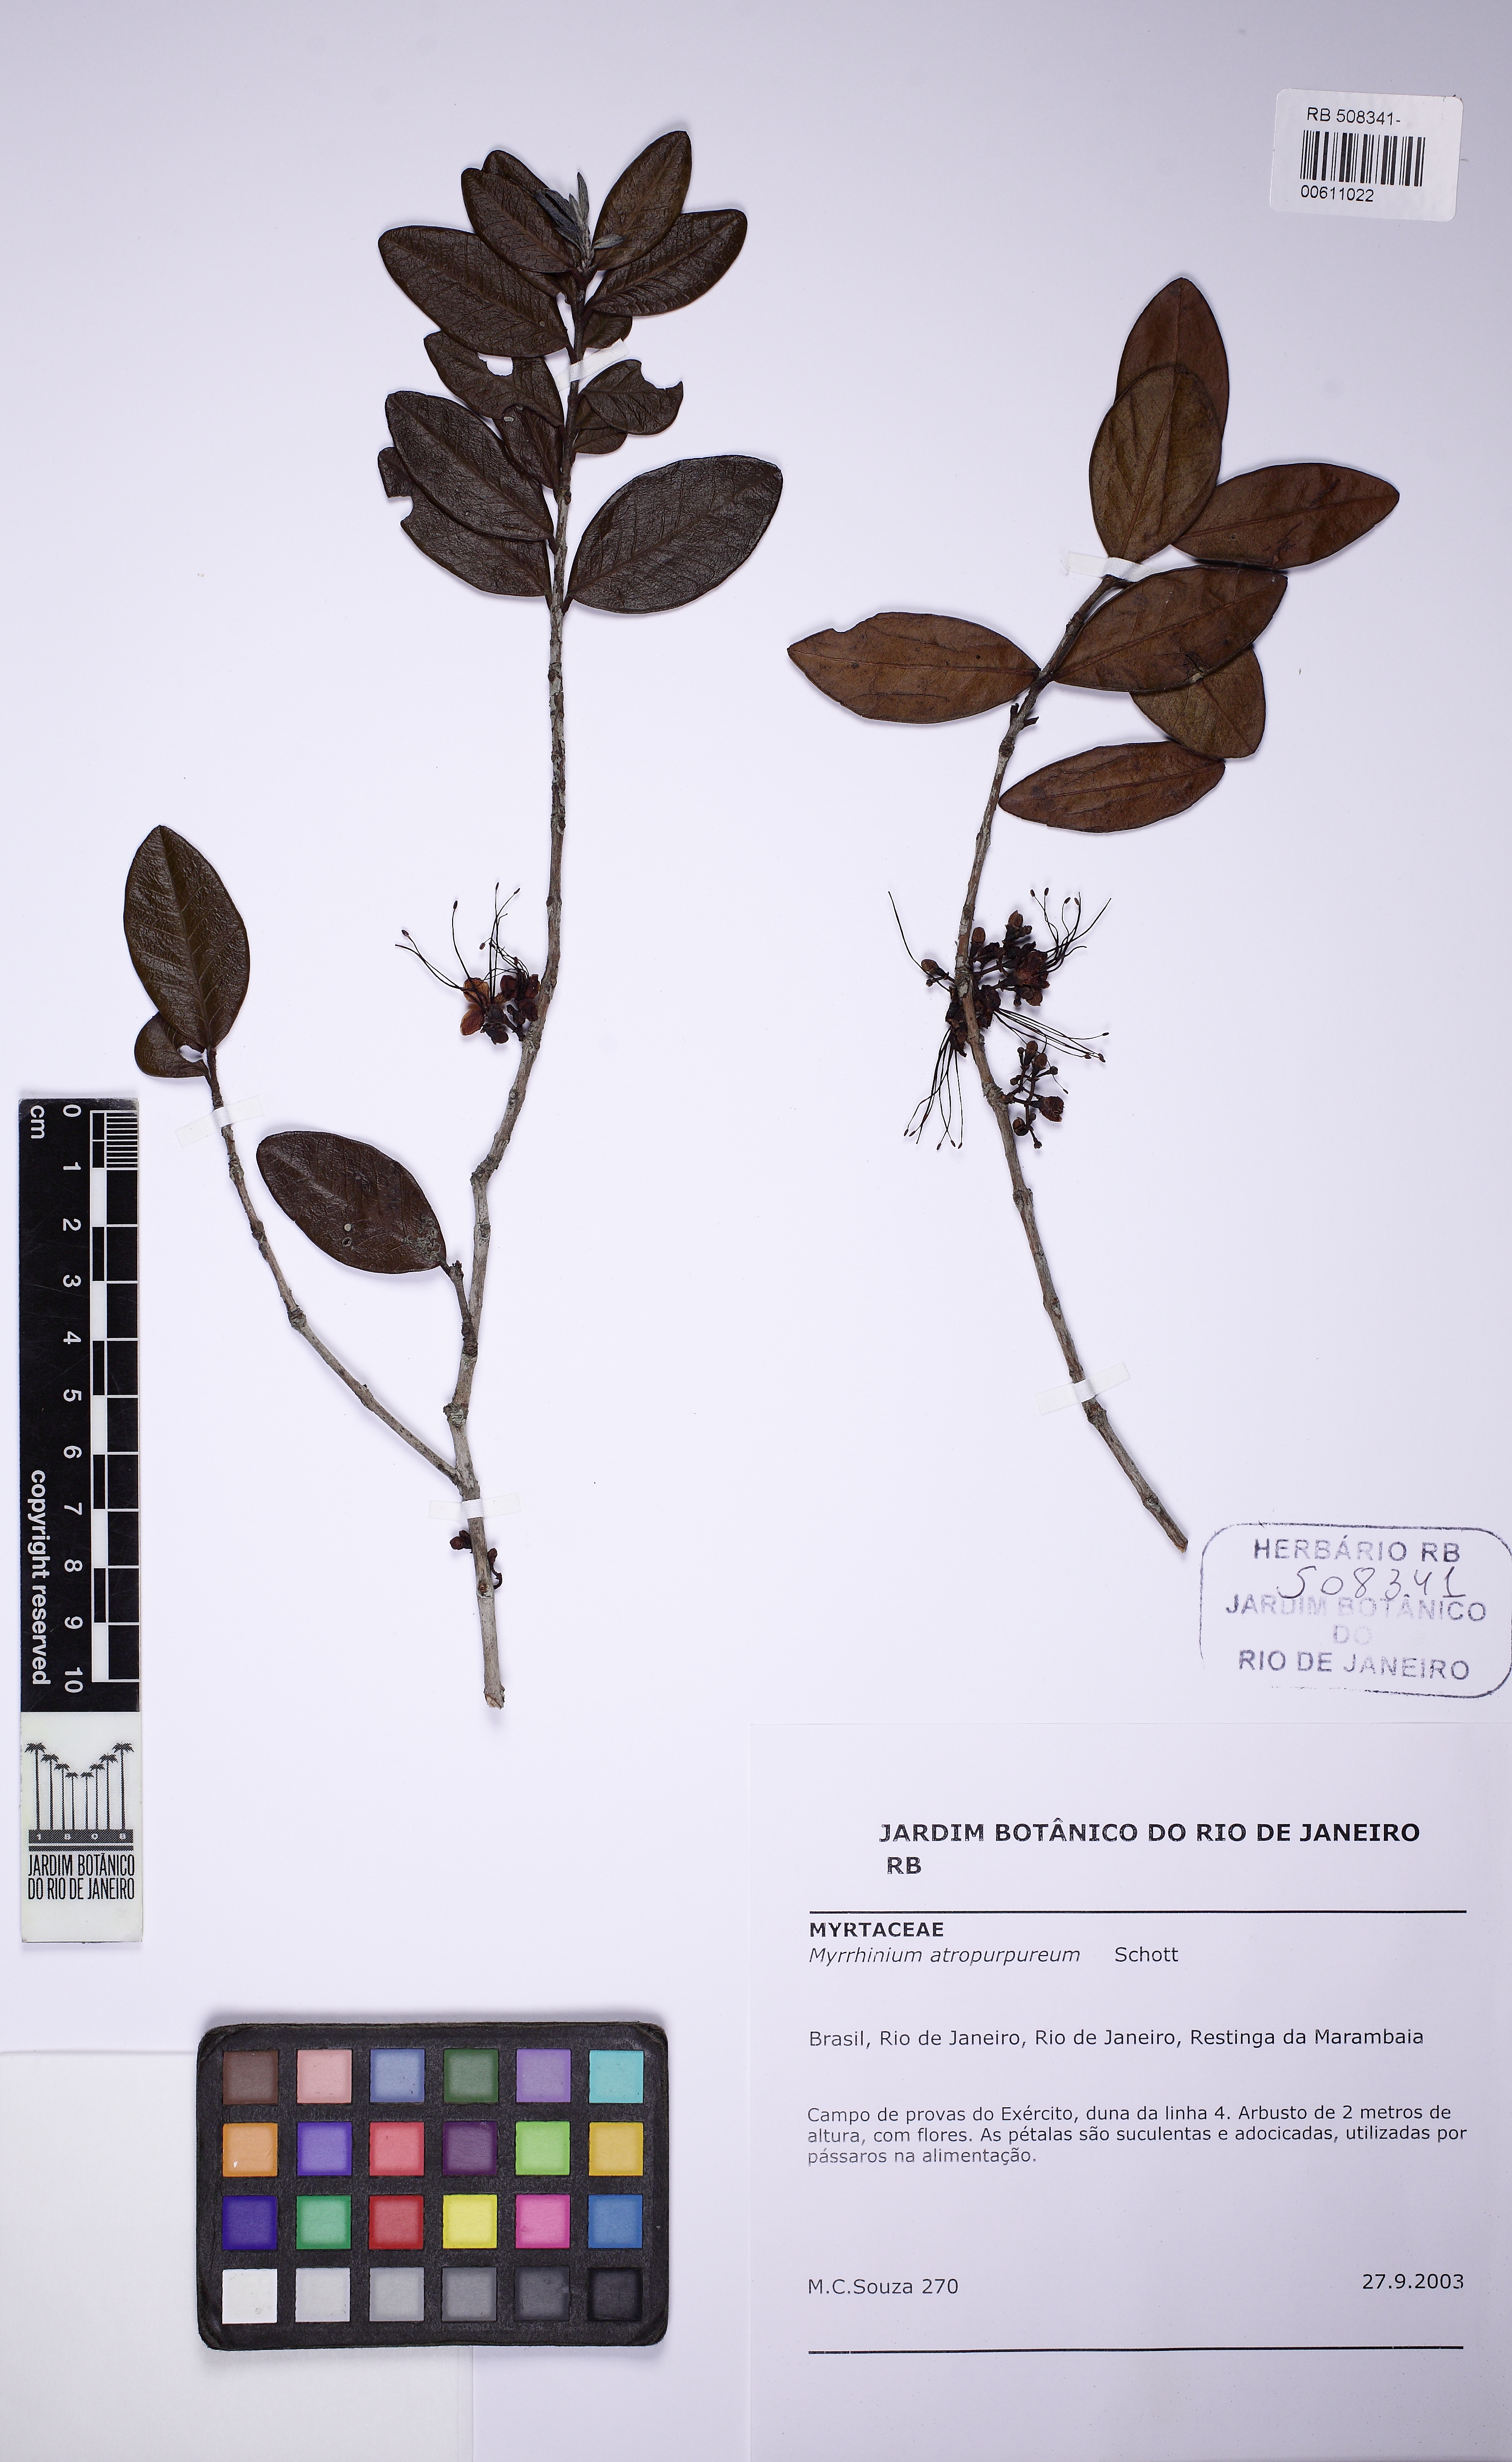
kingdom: Plantae
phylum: Tracheophyta
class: Magnoliopsida
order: Myrtales
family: Myrtaceae
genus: Myrrhinium
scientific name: Myrrhinium atropurpureum
